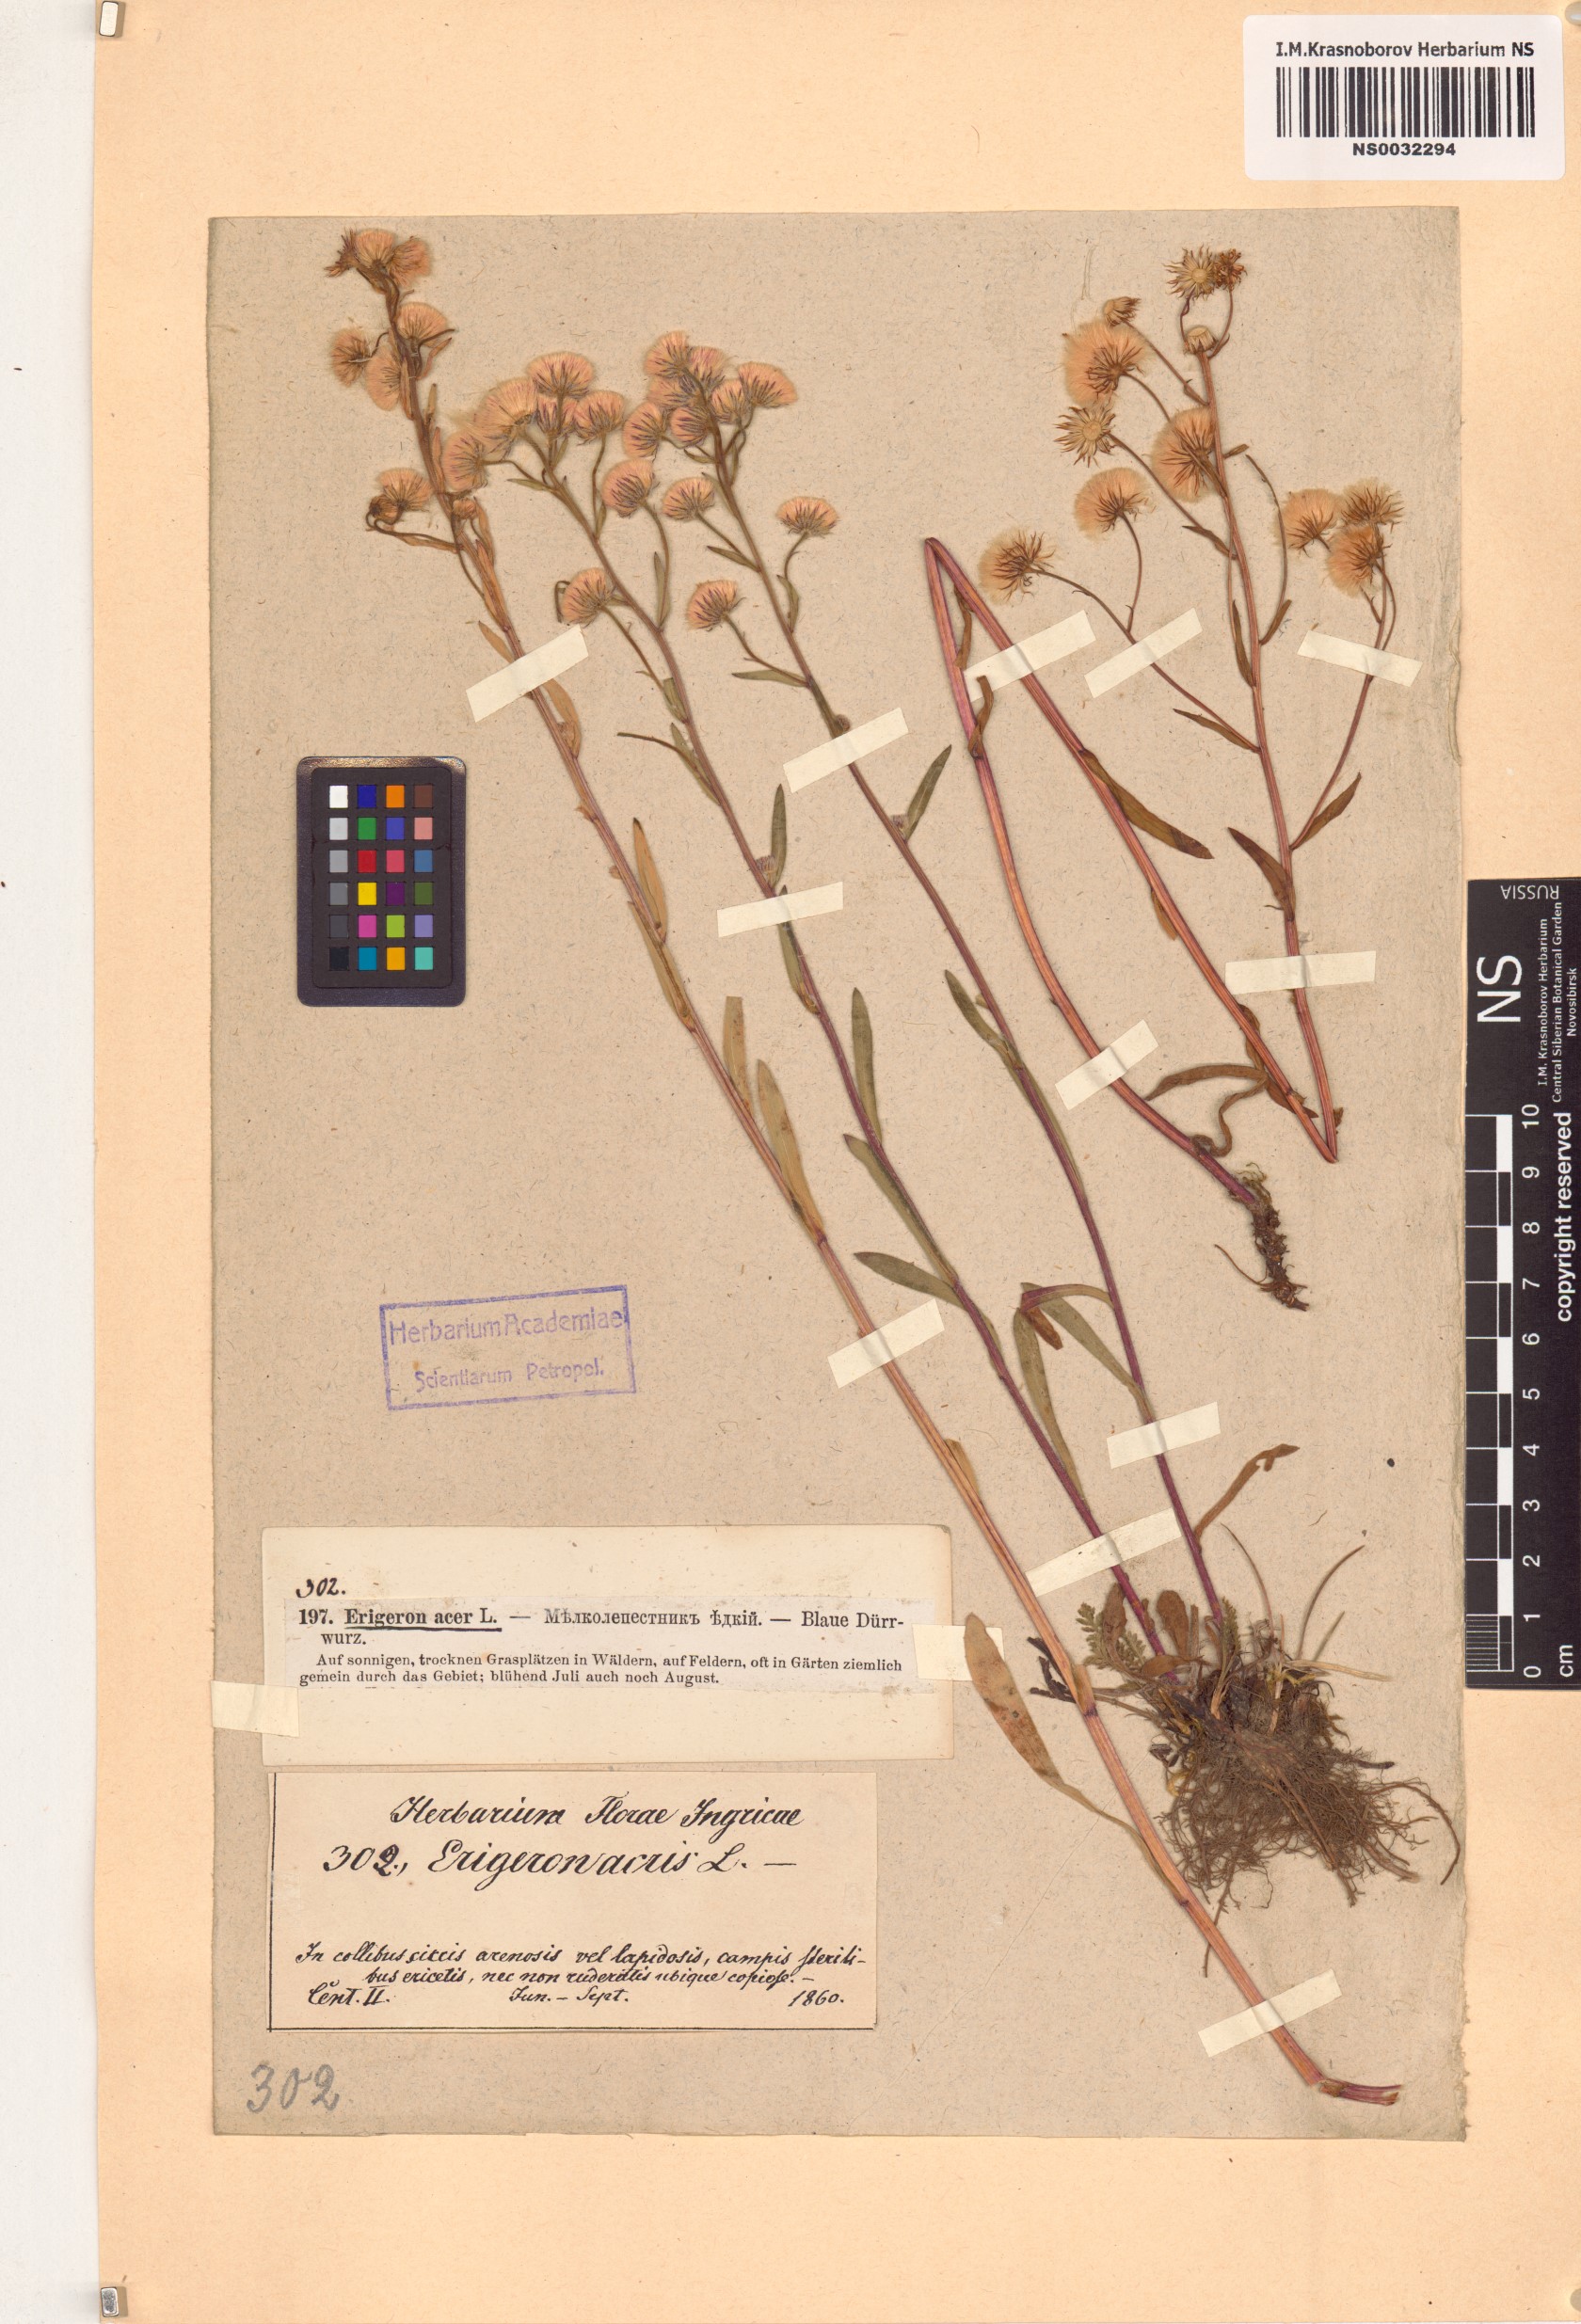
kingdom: Plantae
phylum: Tracheophyta
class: Magnoliopsida
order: Asterales
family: Asteraceae
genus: Erigeron
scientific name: Erigeron acris
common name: Blue fleabane
